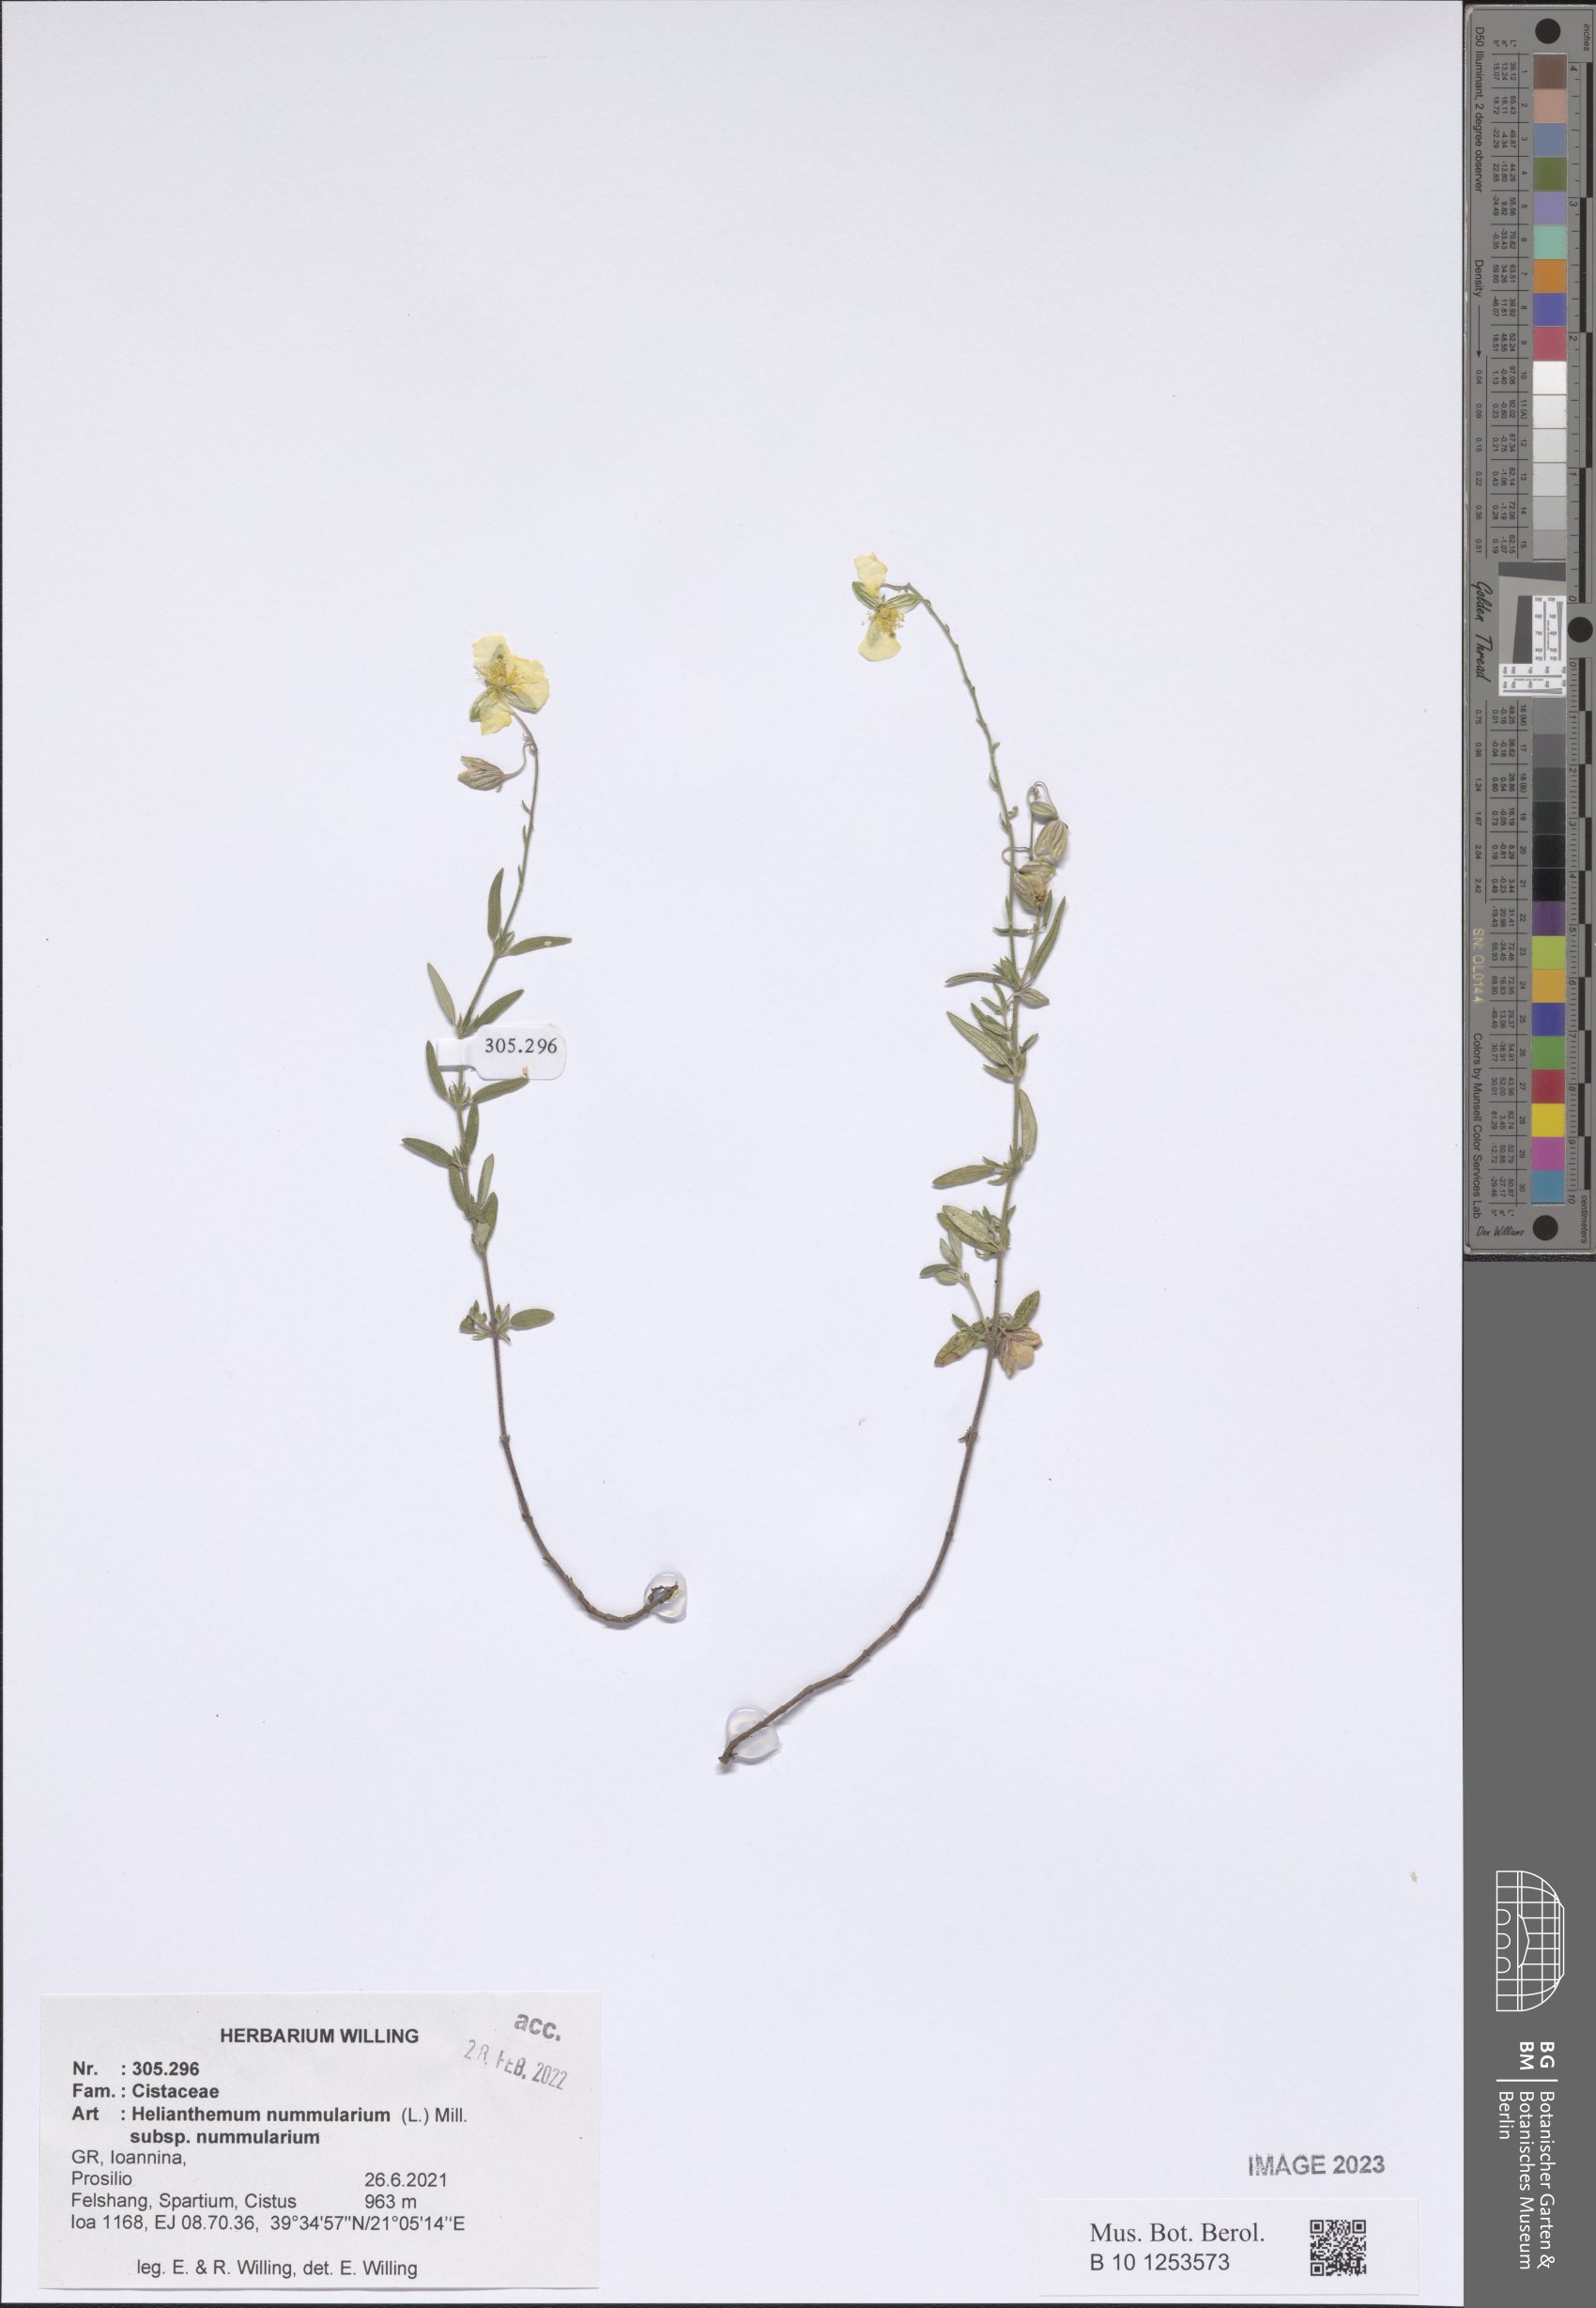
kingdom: Plantae
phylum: Tracheophyta
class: Magnoliopsida
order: Malvales
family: Cistaceae
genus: Helianthemum
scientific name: Helianthemum nummularium
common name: Common rock-rose
